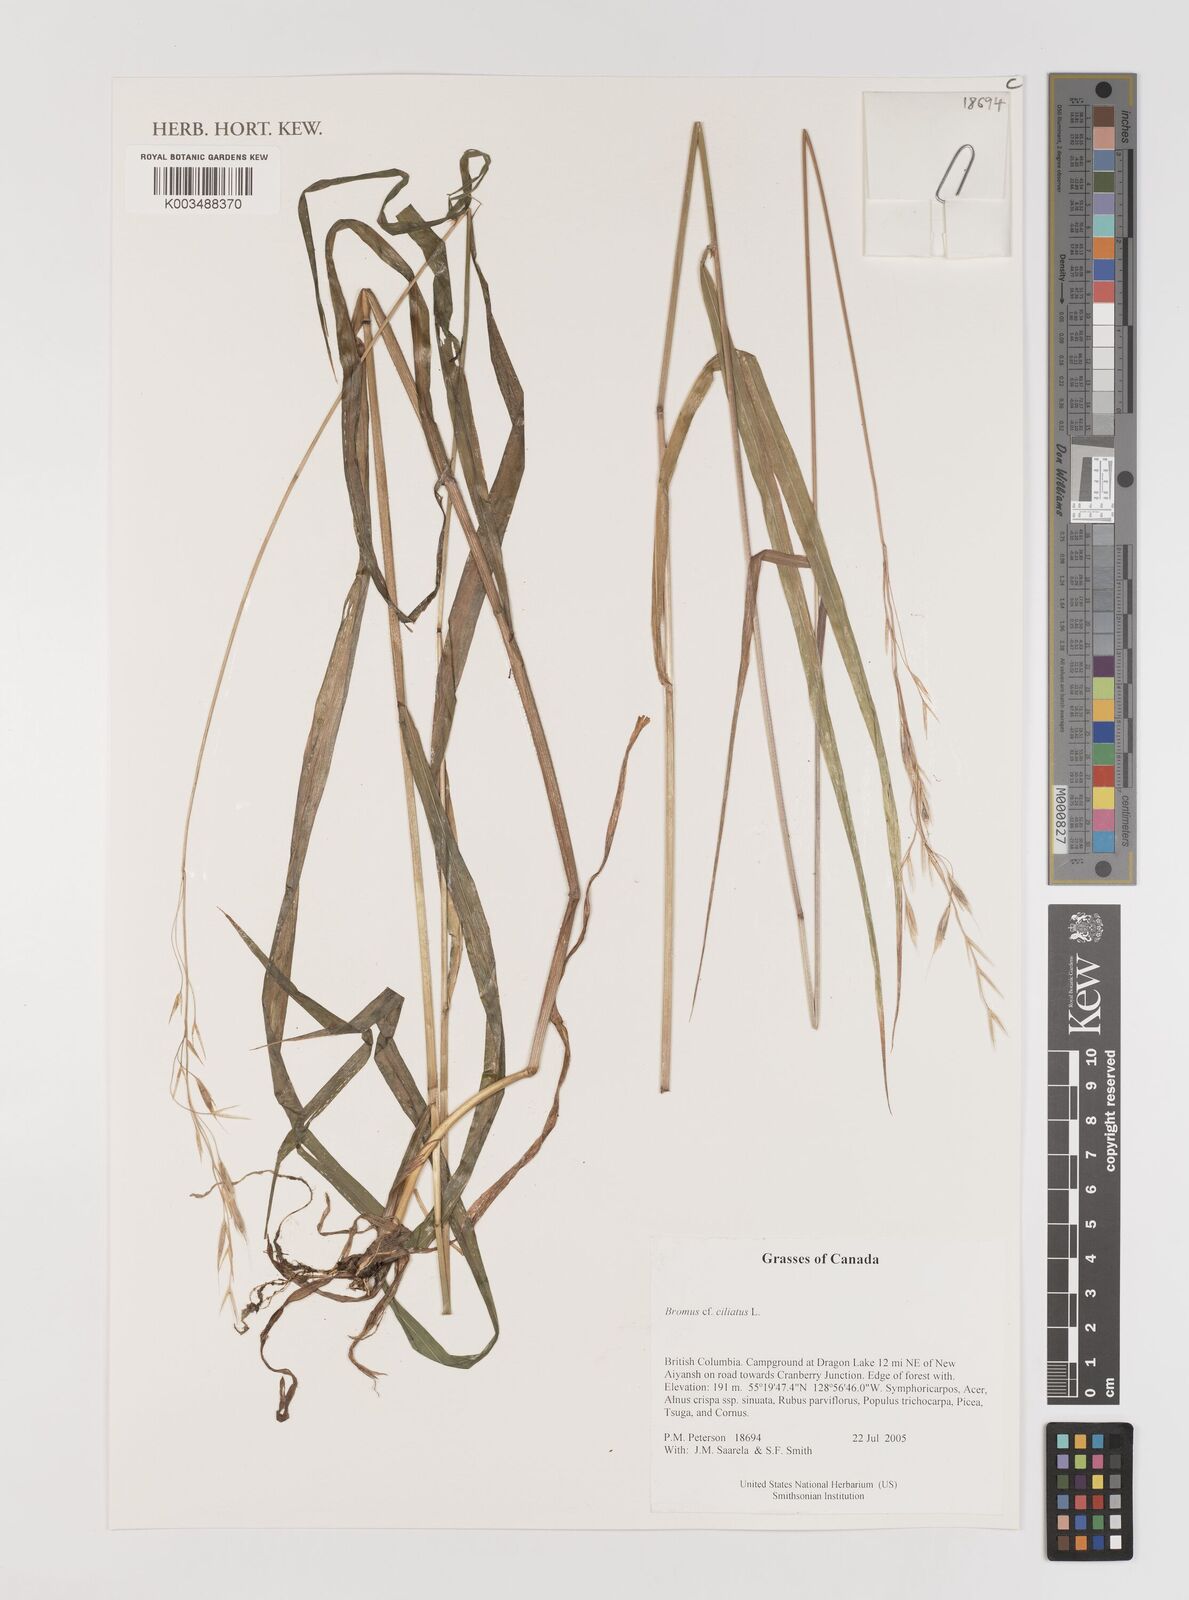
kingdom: Plantae
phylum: Tracheophyta
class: Liliopsida
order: Poales
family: Poaceae
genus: Bromus
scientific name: Bromus ciliatus
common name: Fringe brome
